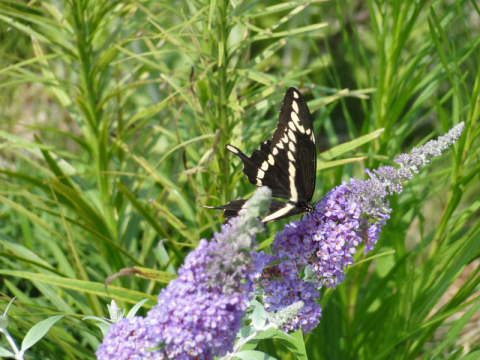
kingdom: Animalia
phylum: Arthropoda
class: Insecta
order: Lepidoptera
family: Papilionidae
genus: Papilio
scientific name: Papilio cresphontes
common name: Eastern Giant Swallowtail
